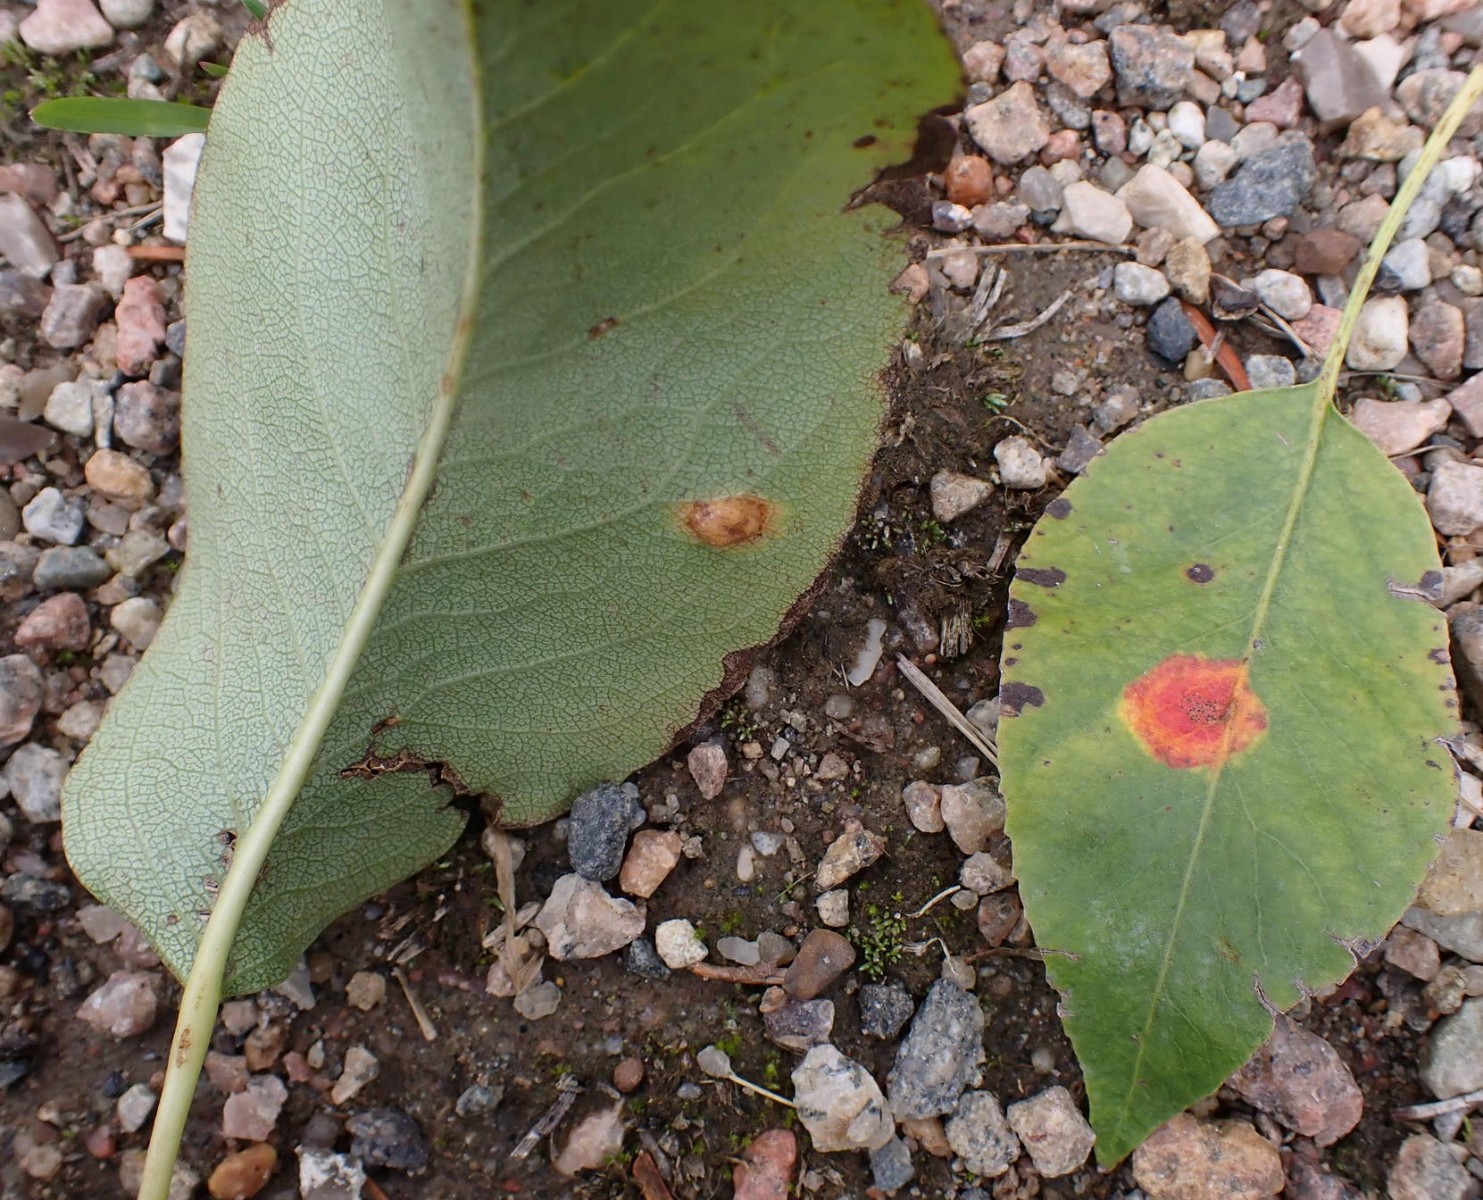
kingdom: Fungi
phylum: Basidiomycota
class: Pucciniomycetes
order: Pucciniales
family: Gymnosporangiaceae
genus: Gymnosporangium
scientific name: Gymnosporangium sabinae
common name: pæregitter-bævrerust
